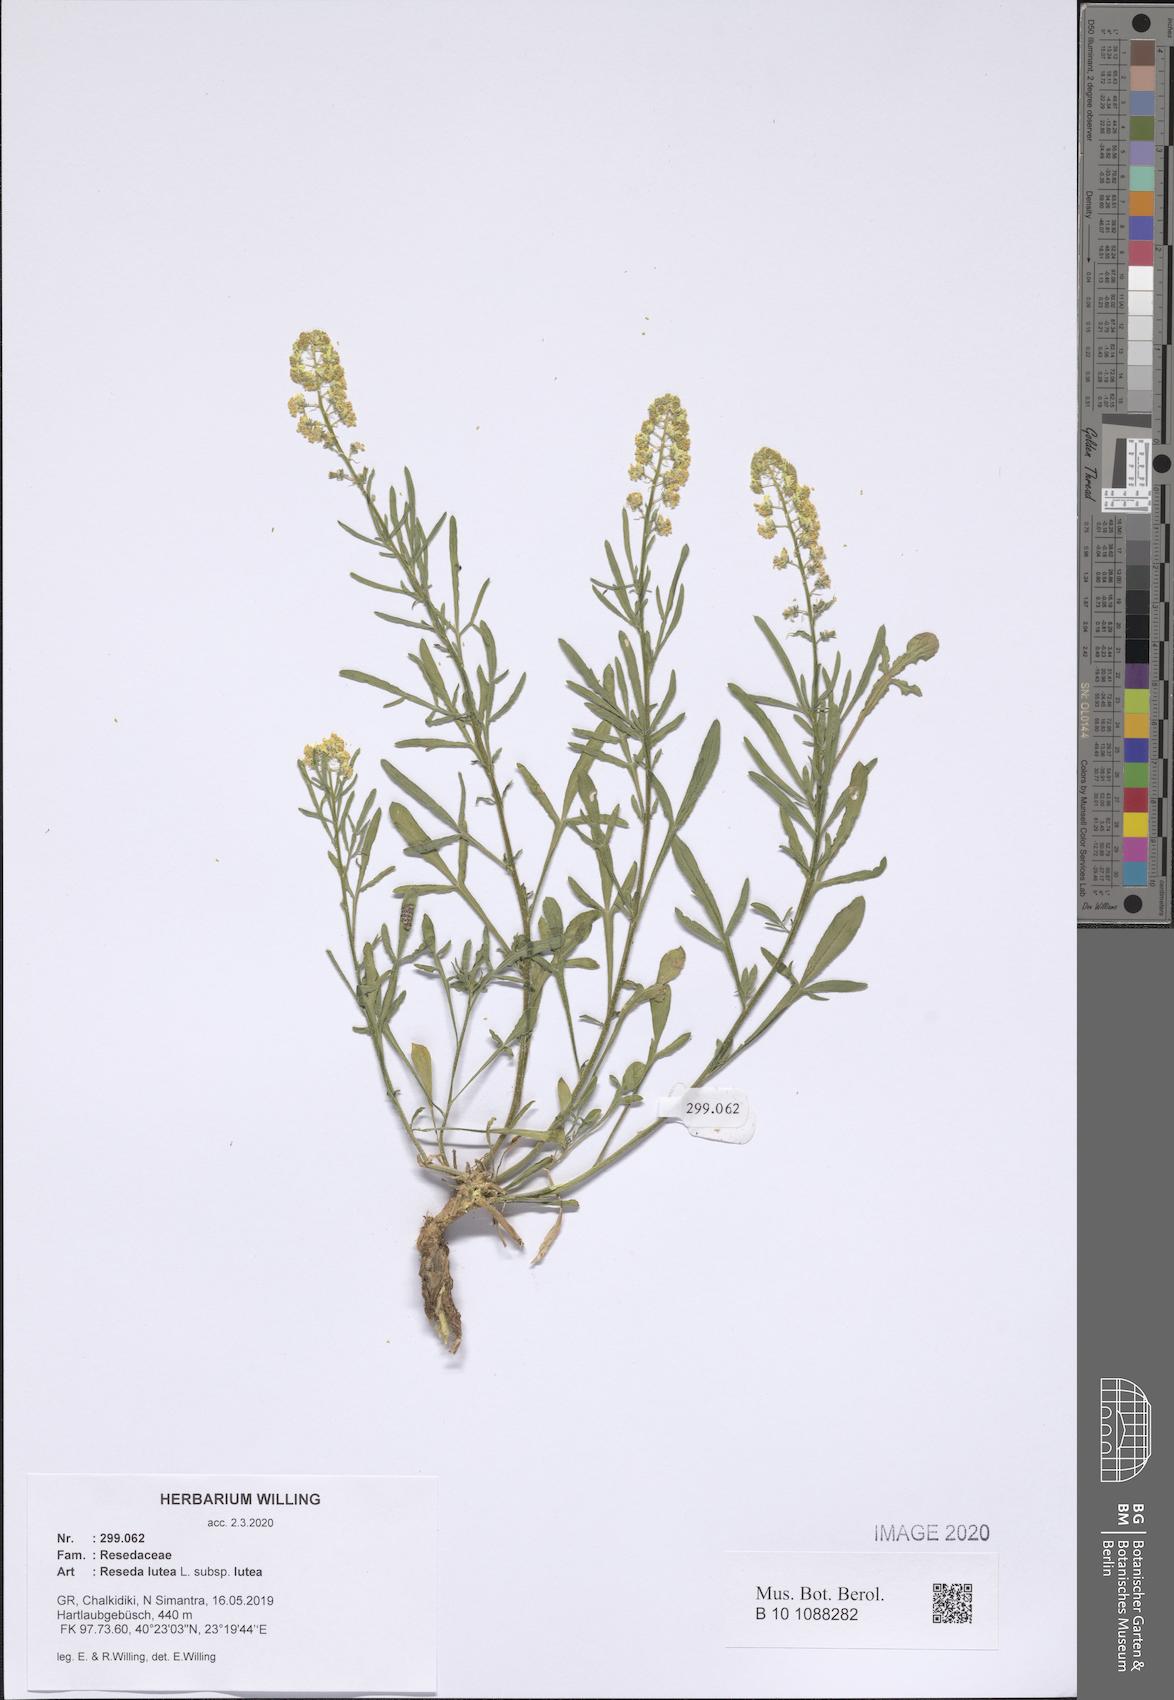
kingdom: Plantae
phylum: Tracheophyta
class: Magnoliopsida
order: Brassicales
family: Resedaceae
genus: Reseda
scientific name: Reseda lutea
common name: Wild mignonette
